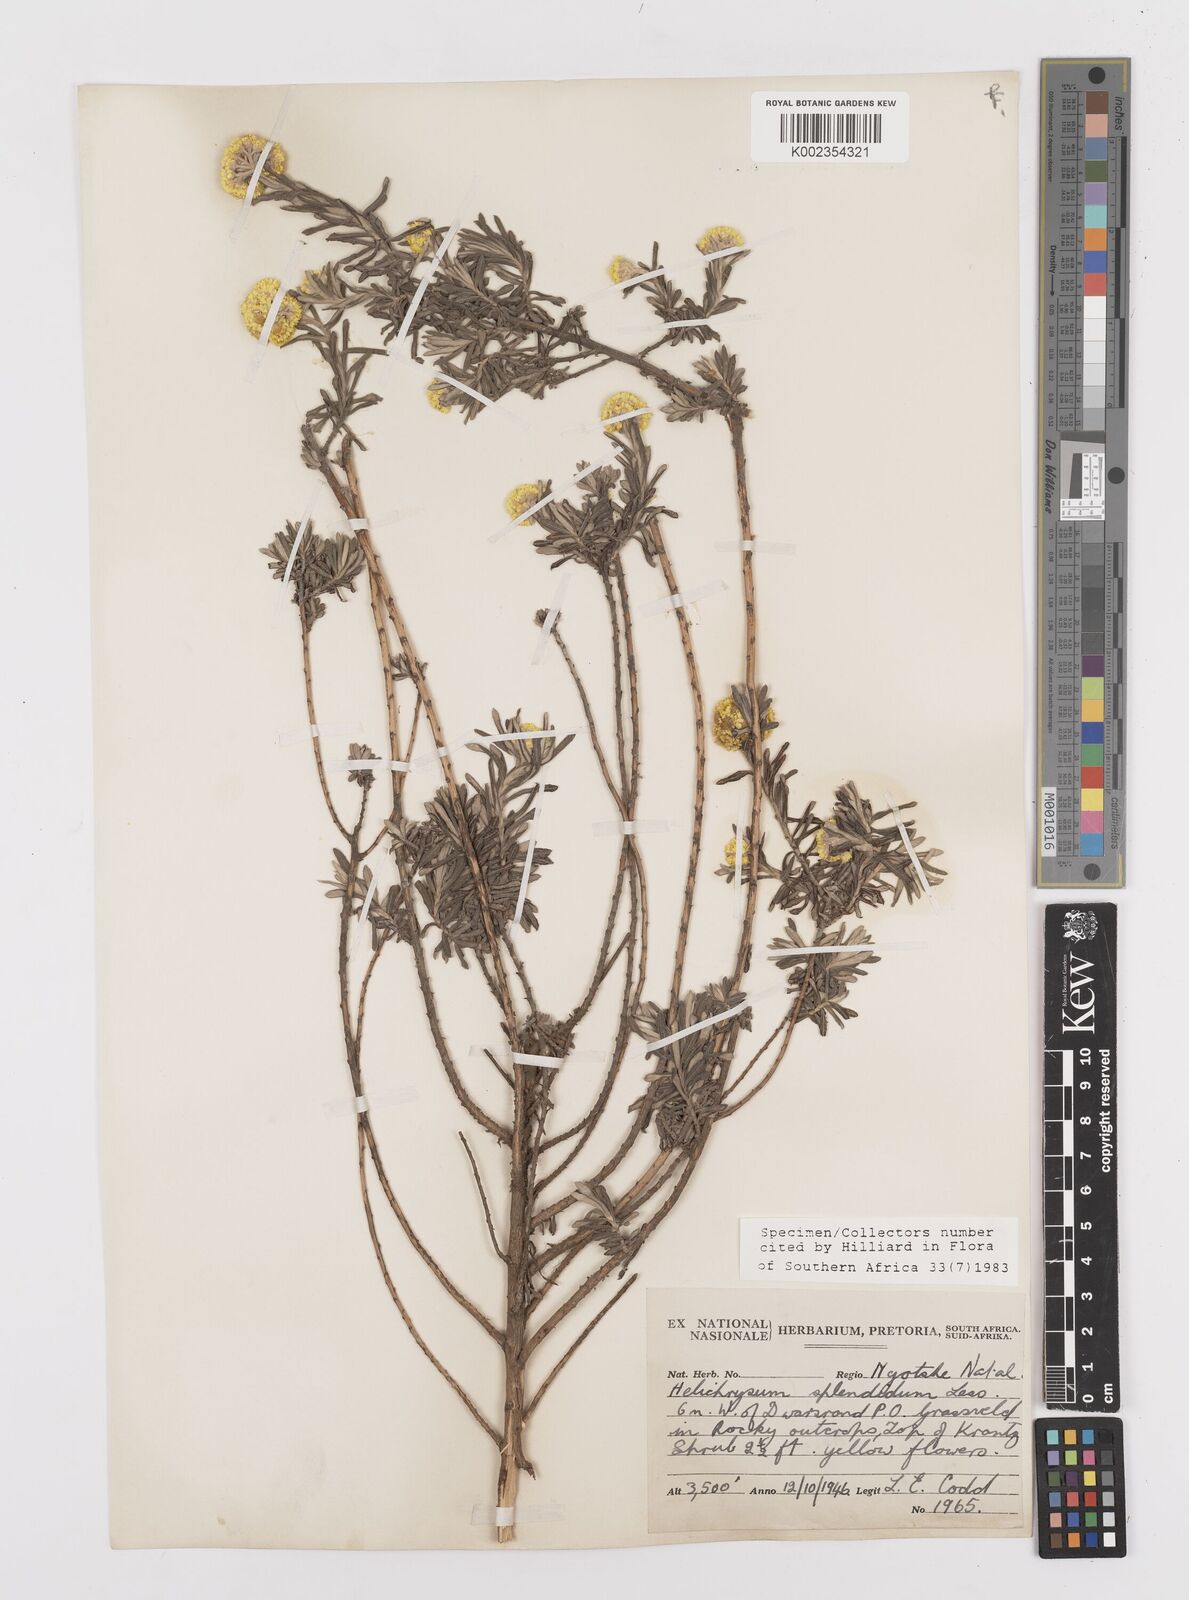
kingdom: Plantae
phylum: Tracheophyta
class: Magnoliopsida
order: Asterales
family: Asteraceae
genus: Helichrysum
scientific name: Helichrysum splendidum
